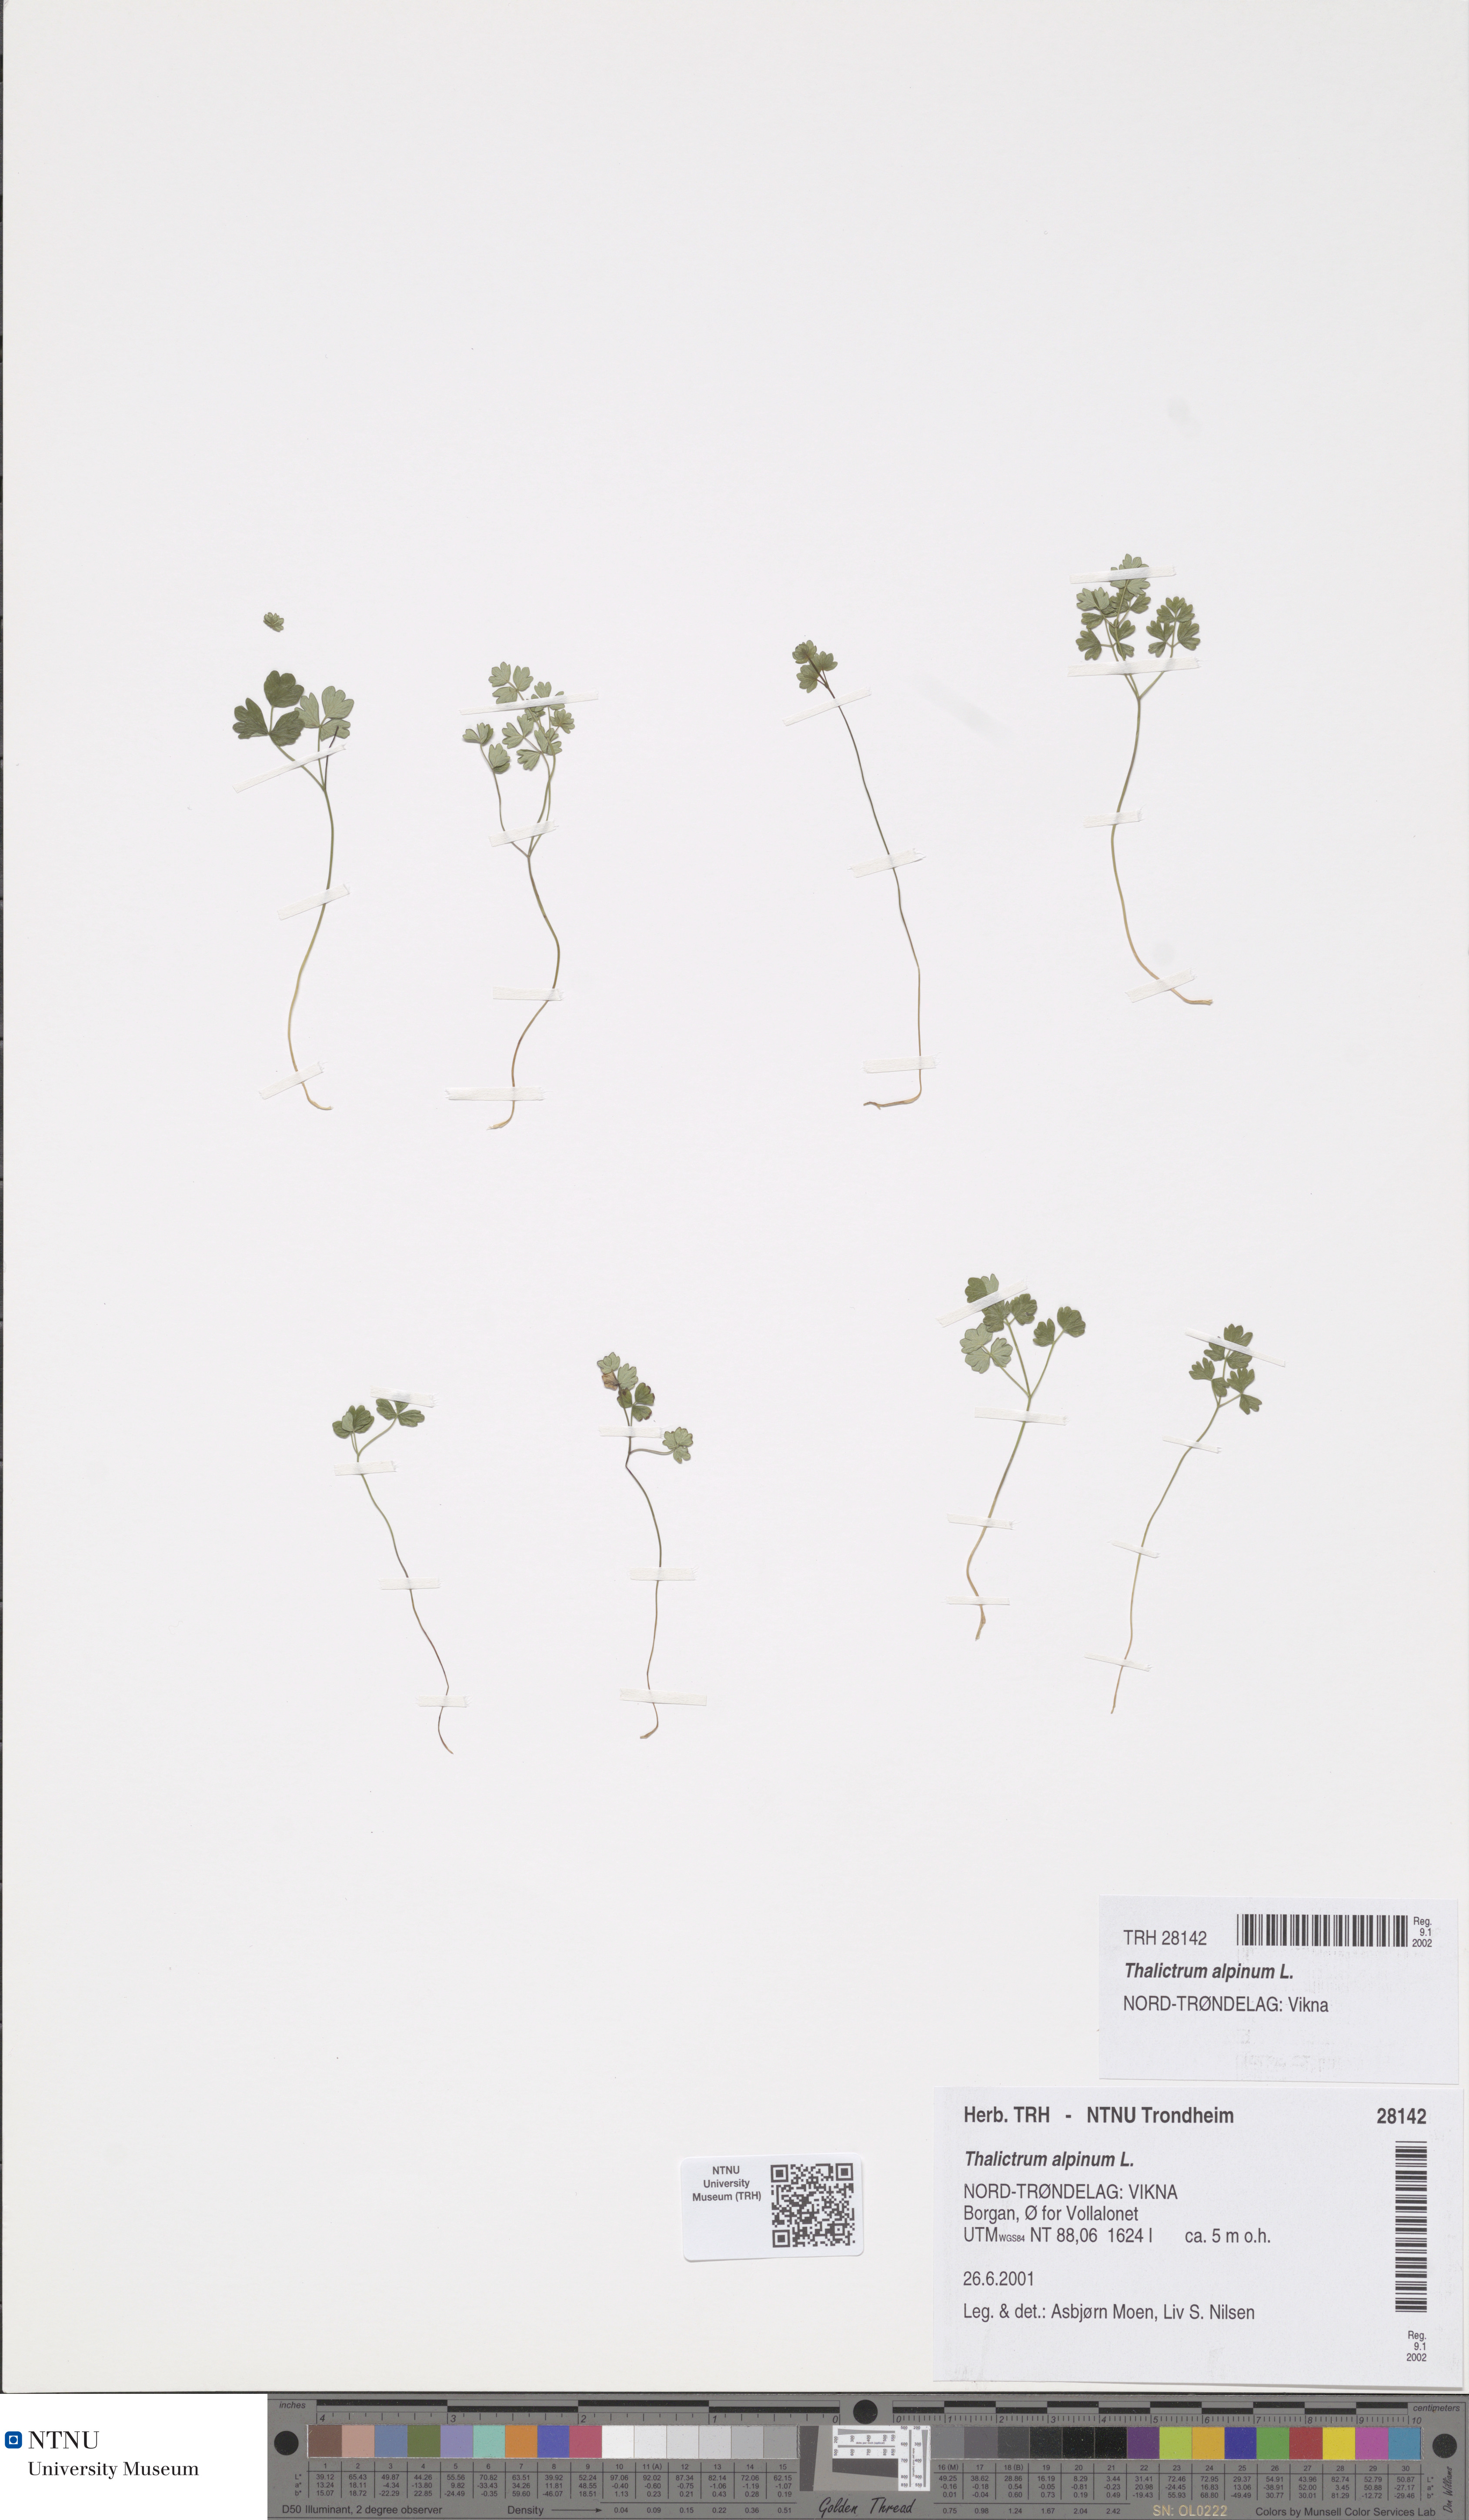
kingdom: Plantae
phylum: Tracheophyta
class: Magnoliopsida
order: Ranunculales
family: Ranunculaceae
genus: Thalictrum
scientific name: Thalictrum alpinum
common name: Alpine meadow-rue
